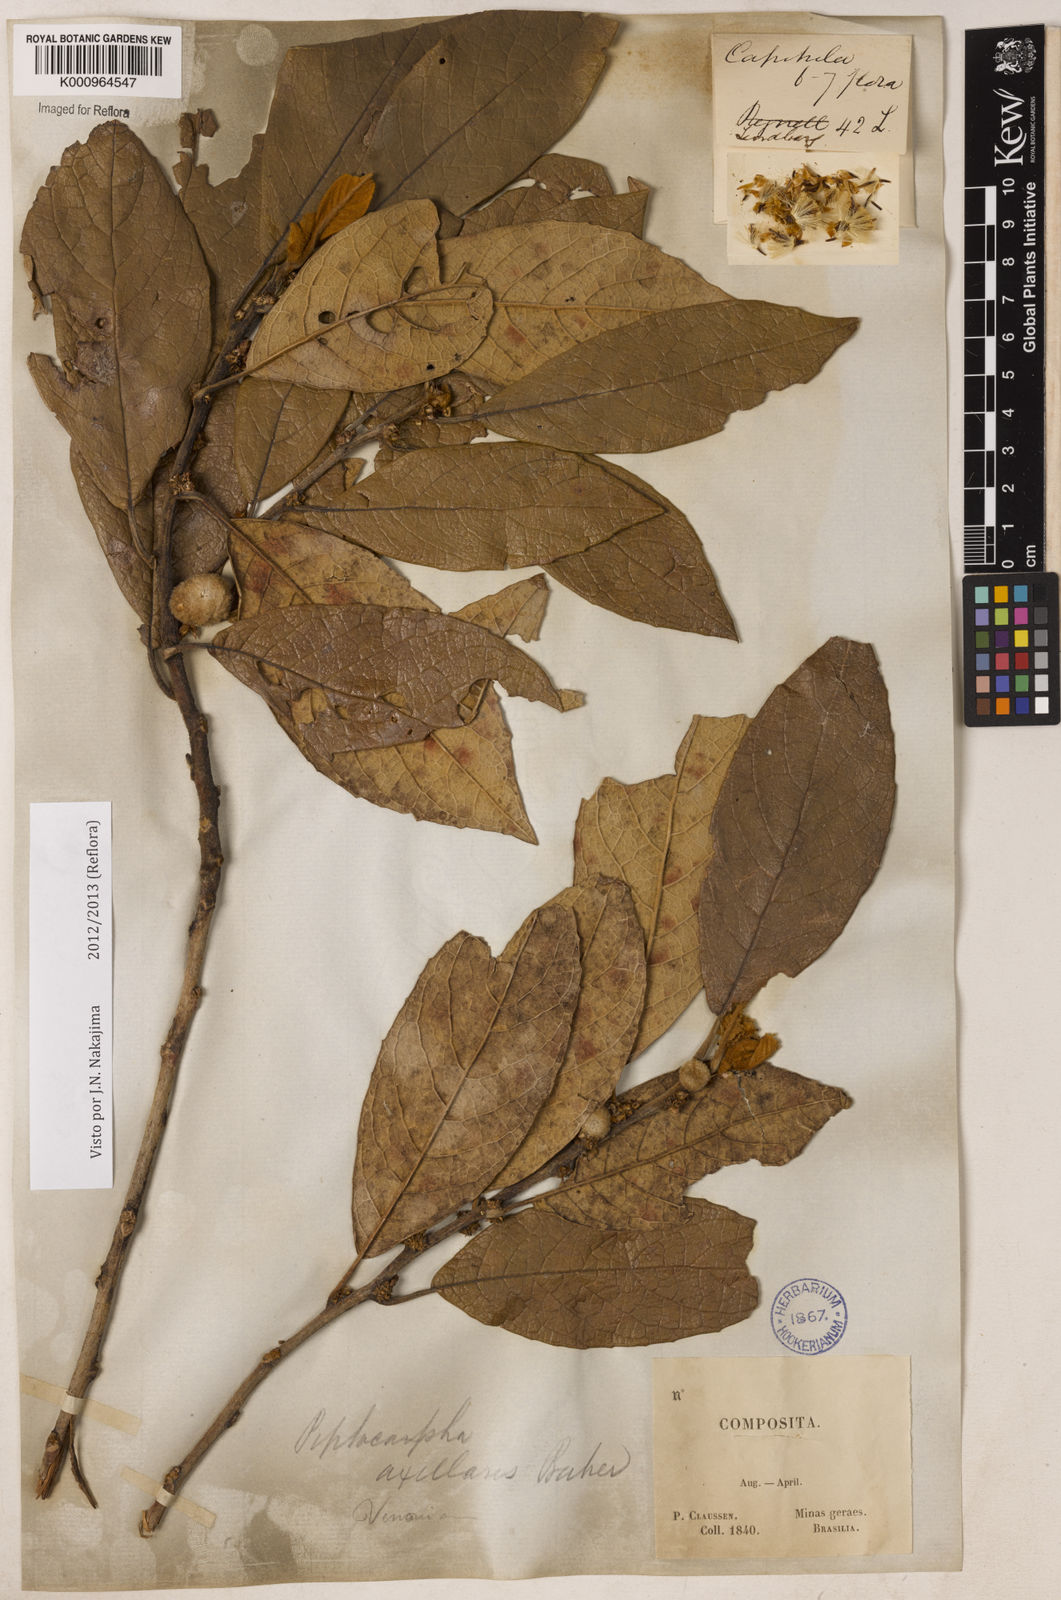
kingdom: Plantae
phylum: Tracheophyta
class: Magnoliopsida
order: Asterales
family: Asteraceae
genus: Piptocarpha
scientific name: Piptocarpha axillaris
